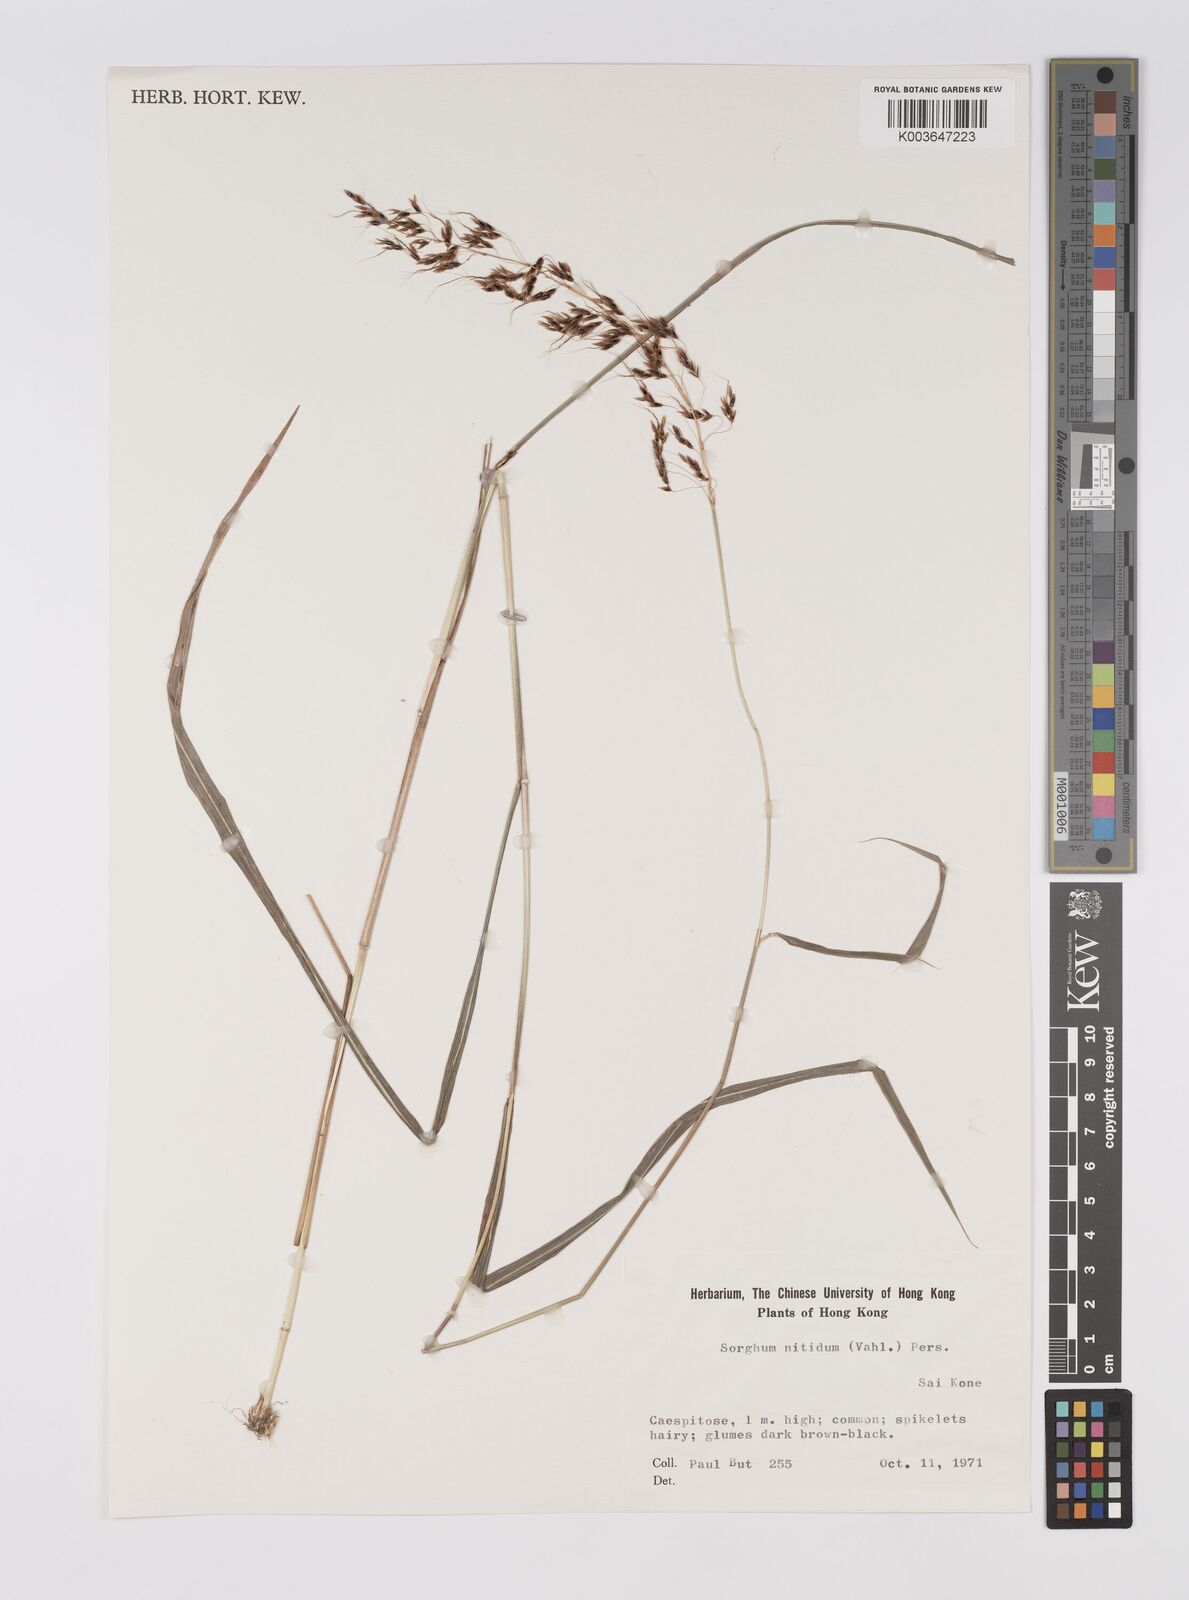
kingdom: Plantae
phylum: Tracheophyta
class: Liliopsida
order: Poales
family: Poaceae
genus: Sorghum
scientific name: Sorghum nitidum
